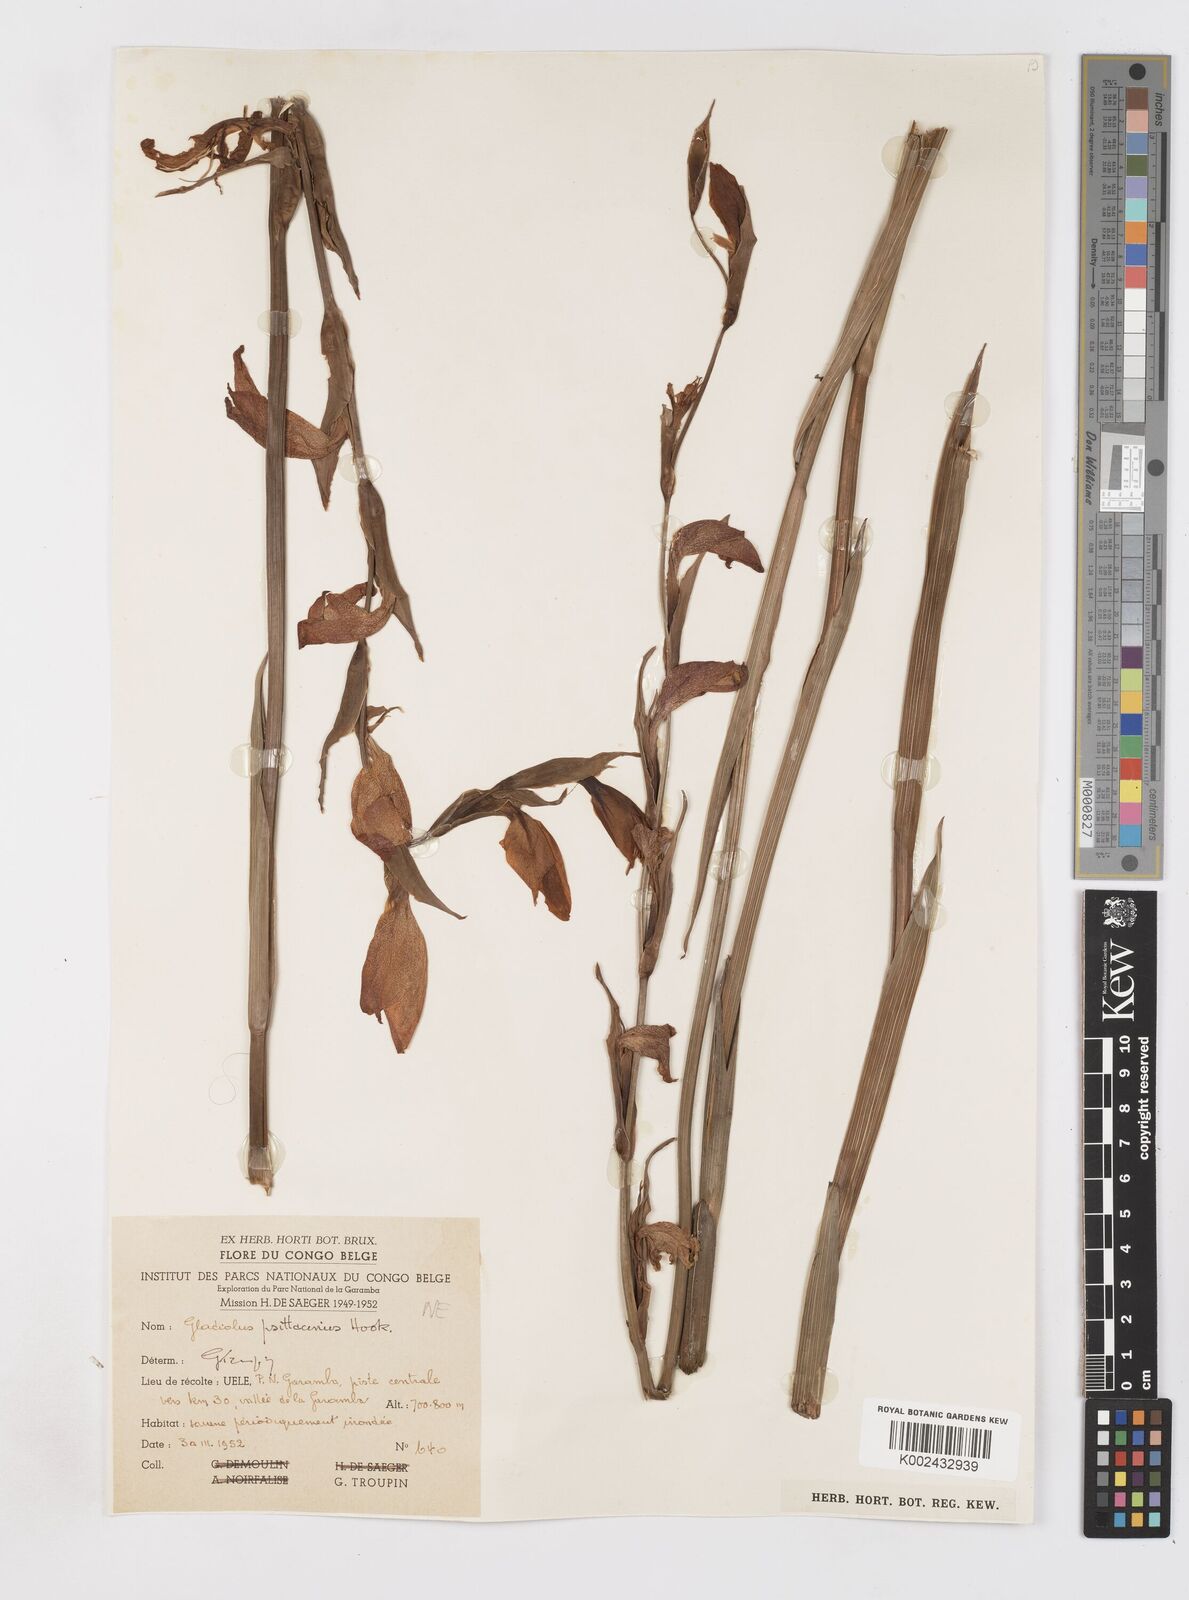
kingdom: Plantae
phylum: Tracheophyta
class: Liliopsida
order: Asparagales
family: Iridaceae
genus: Gladiolus
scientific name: Gladiolus dalenii
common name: Cornflag
